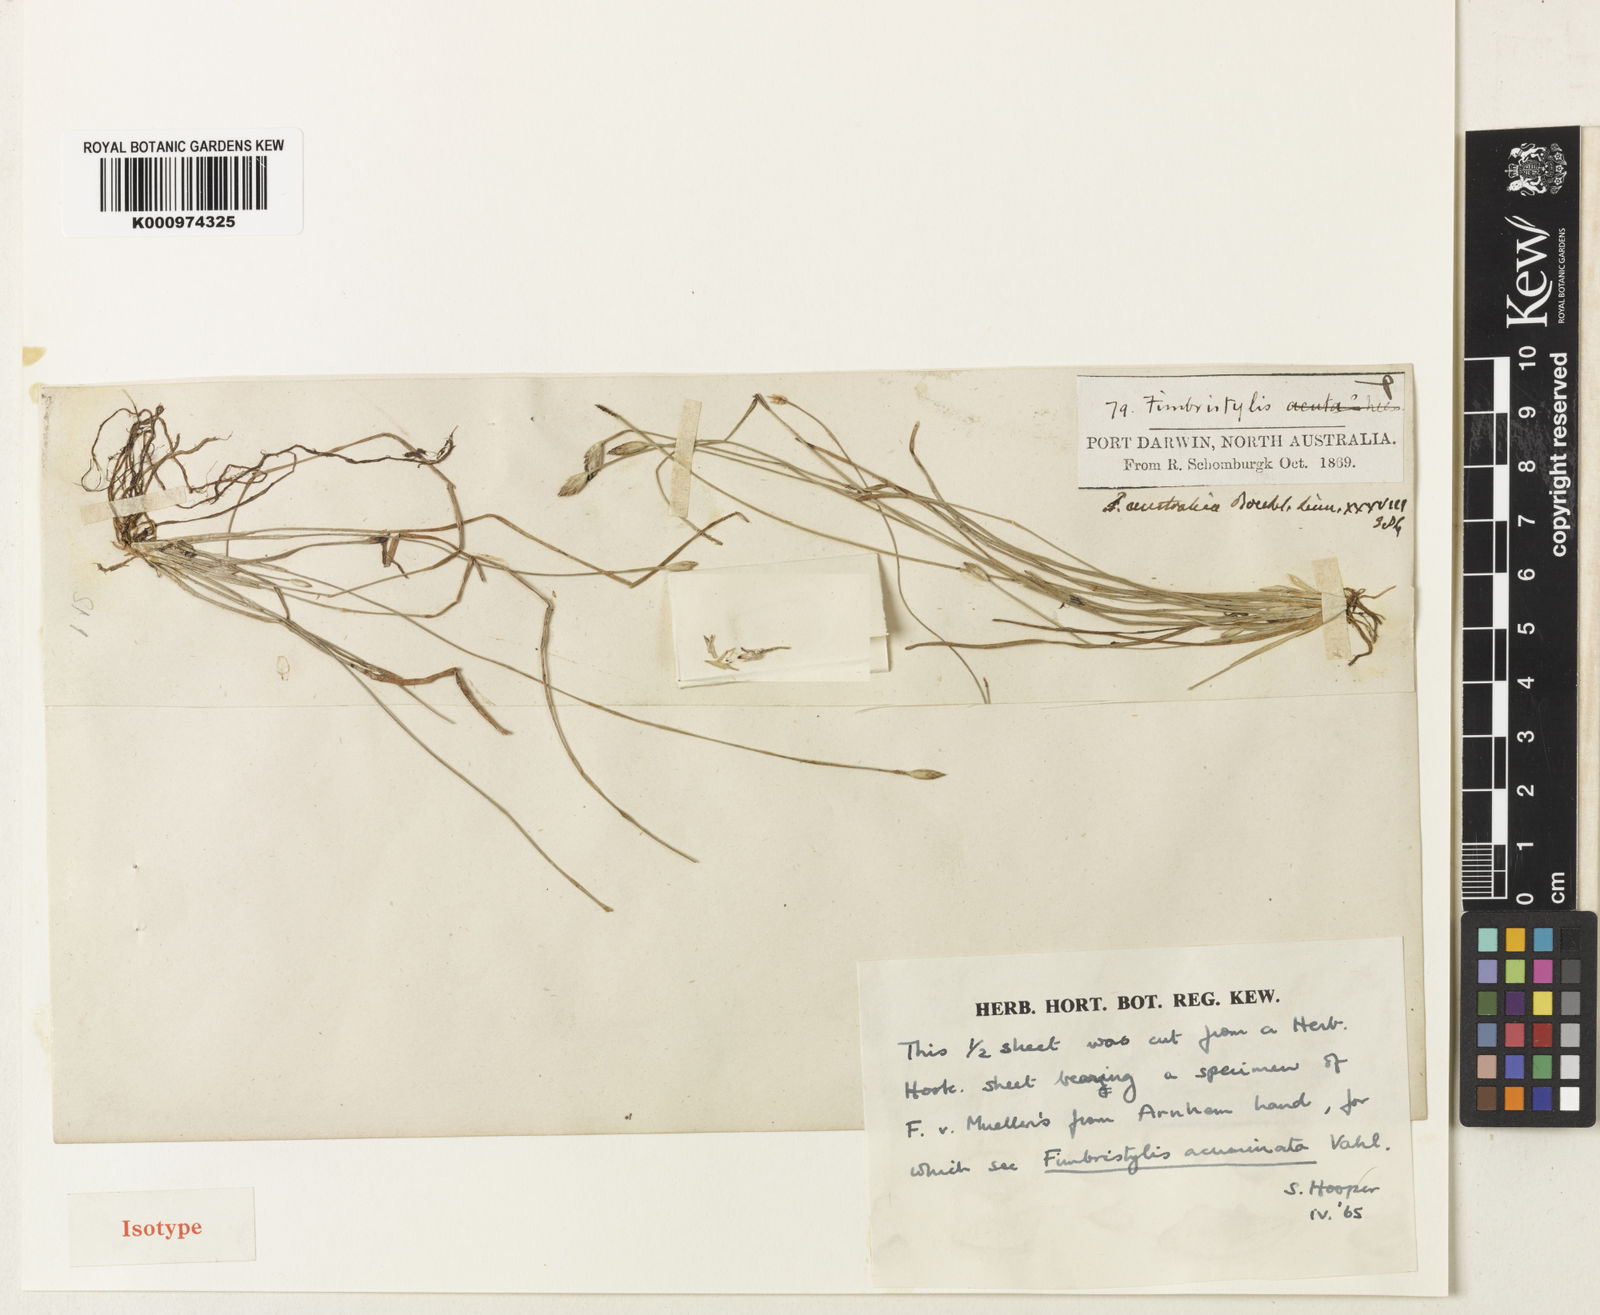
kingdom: Plantae
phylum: Tracheophyta
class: Liliopsida
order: Poales
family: Cyperaceae
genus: Fimbristylis
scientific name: Fimbristylis acuminata
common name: Pointed fimbristylis
